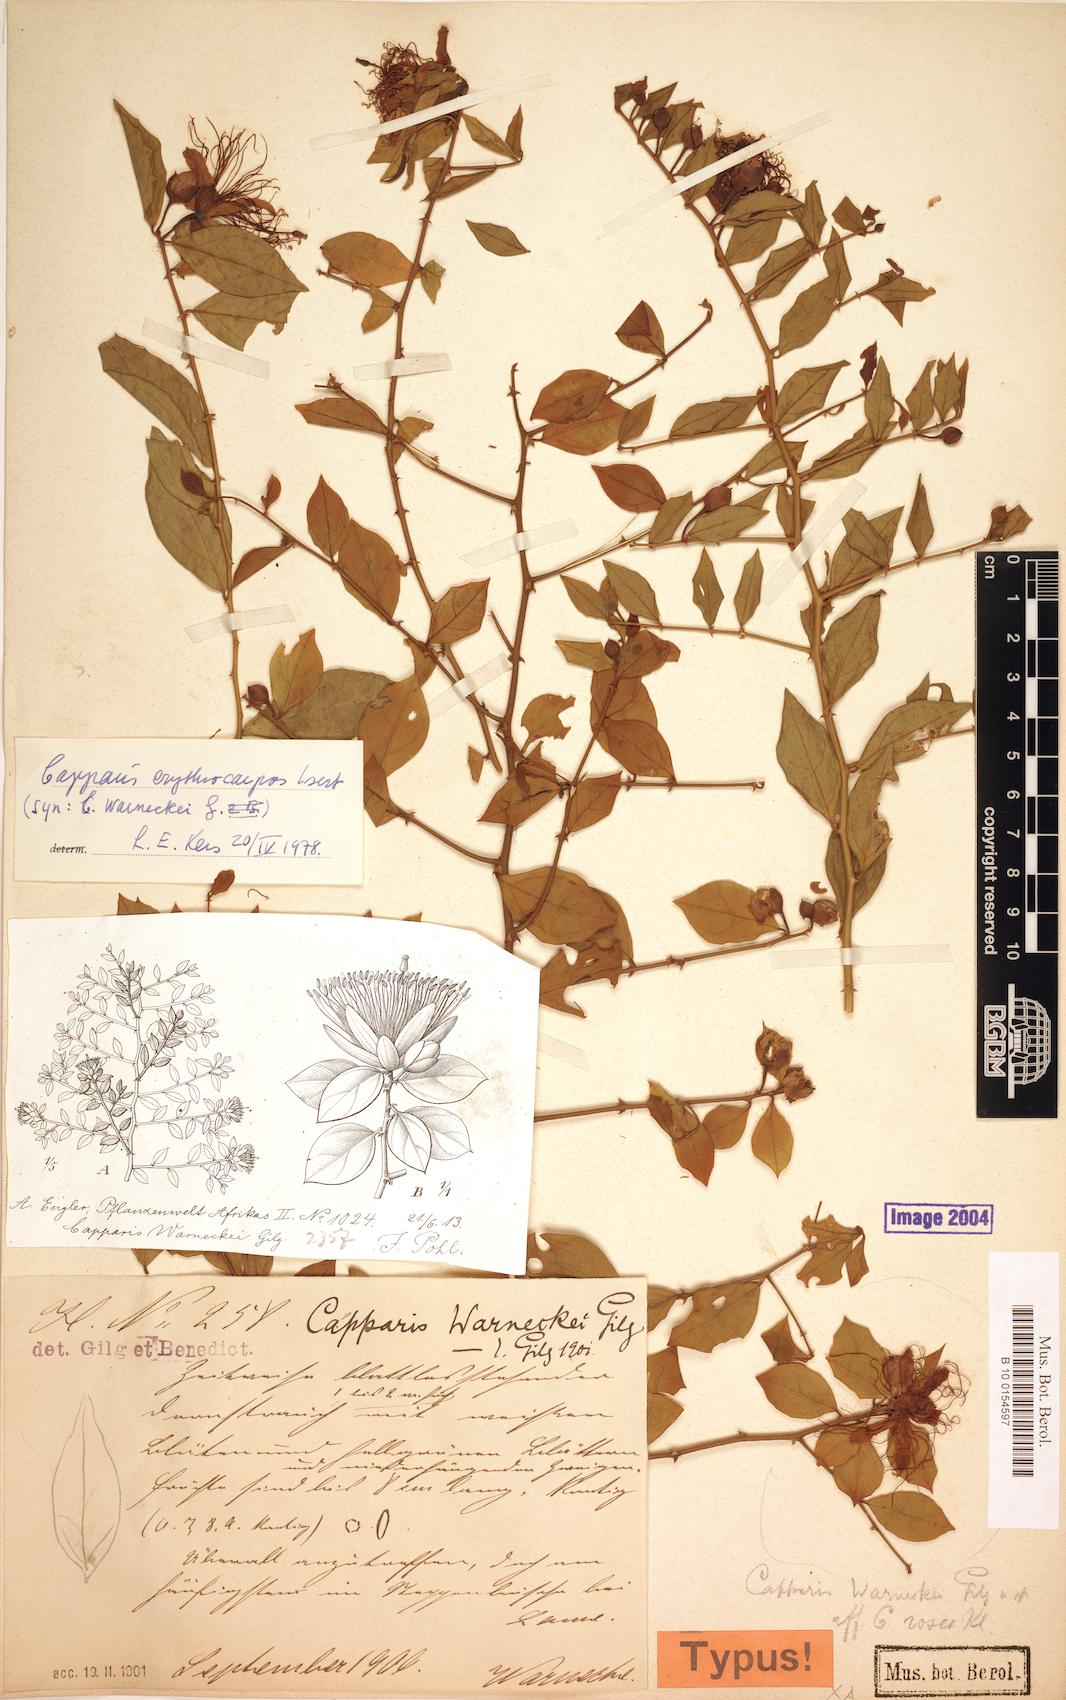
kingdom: Plantae
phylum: Tracheophyta
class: Magnoliopsida
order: Brassicales
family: Capparaceae
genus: Capparis
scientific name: Capparis erythrocarpos
